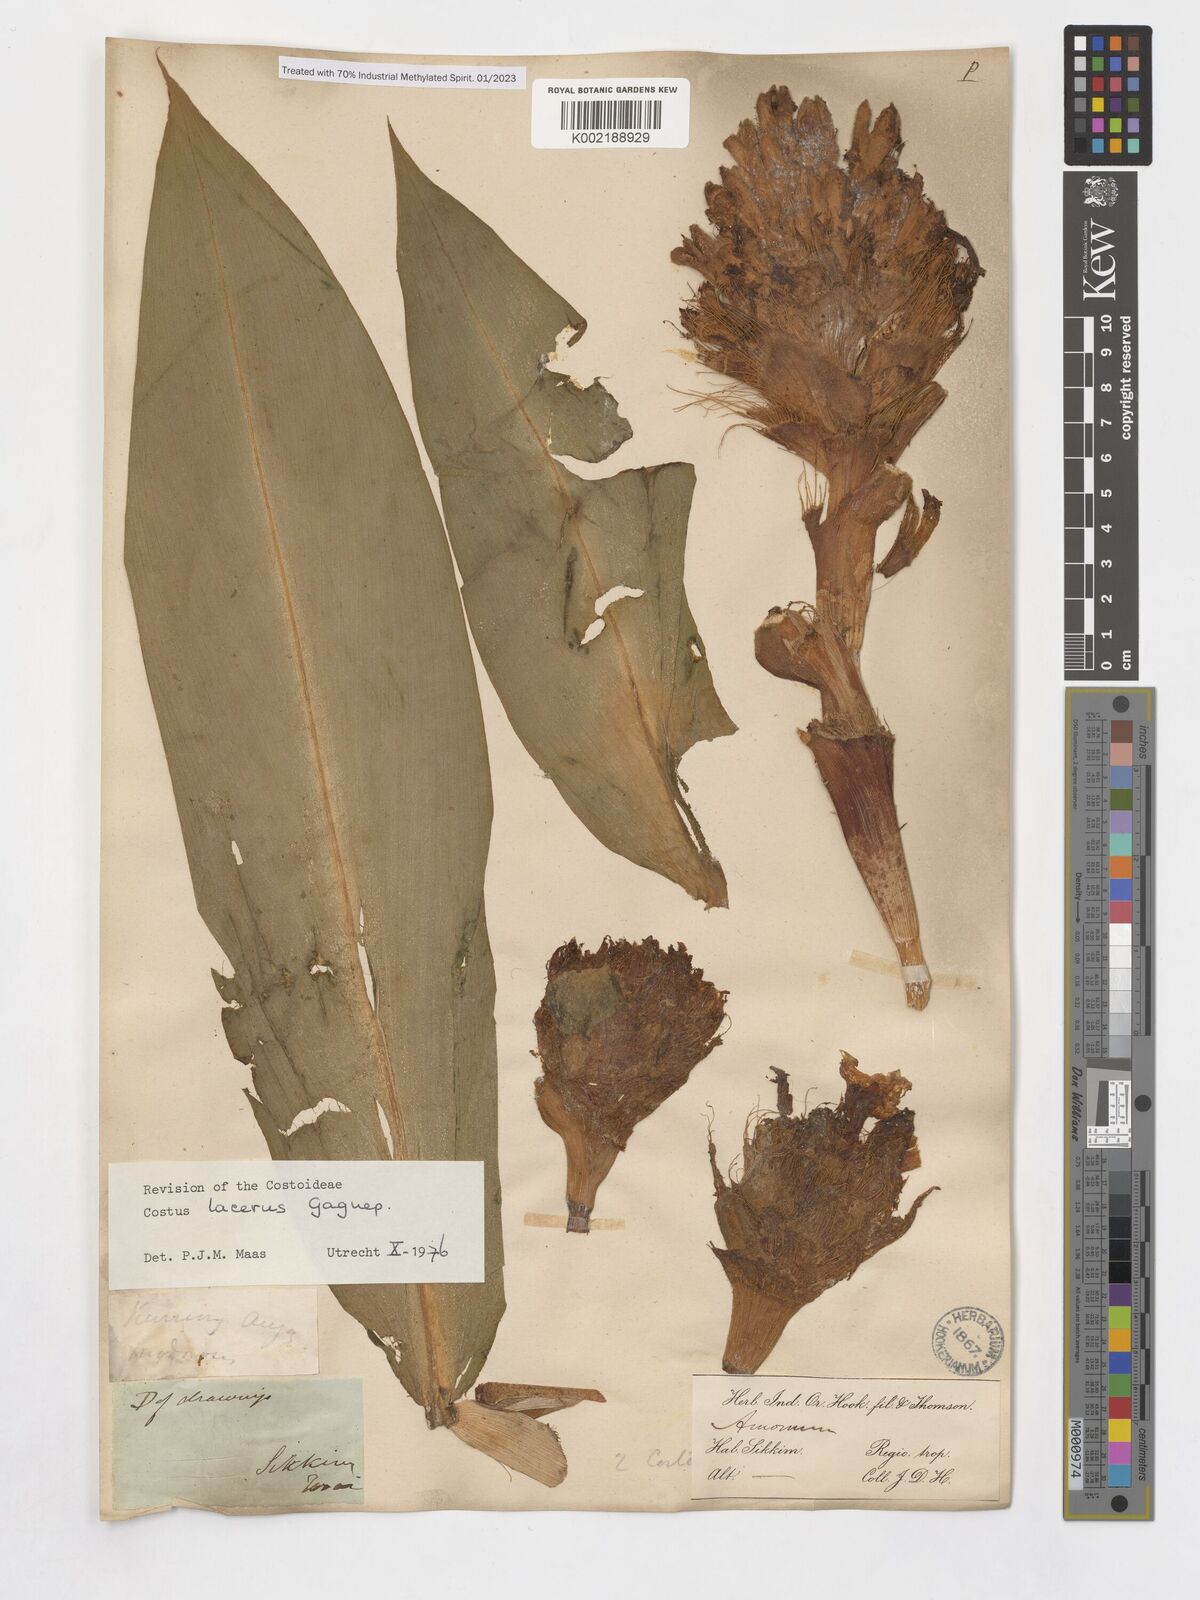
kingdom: Plantae
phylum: Tracheophyta
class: Liliopsida
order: Zingiberales
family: Costaceae
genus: Hellenia
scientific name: Hellenia lacera
